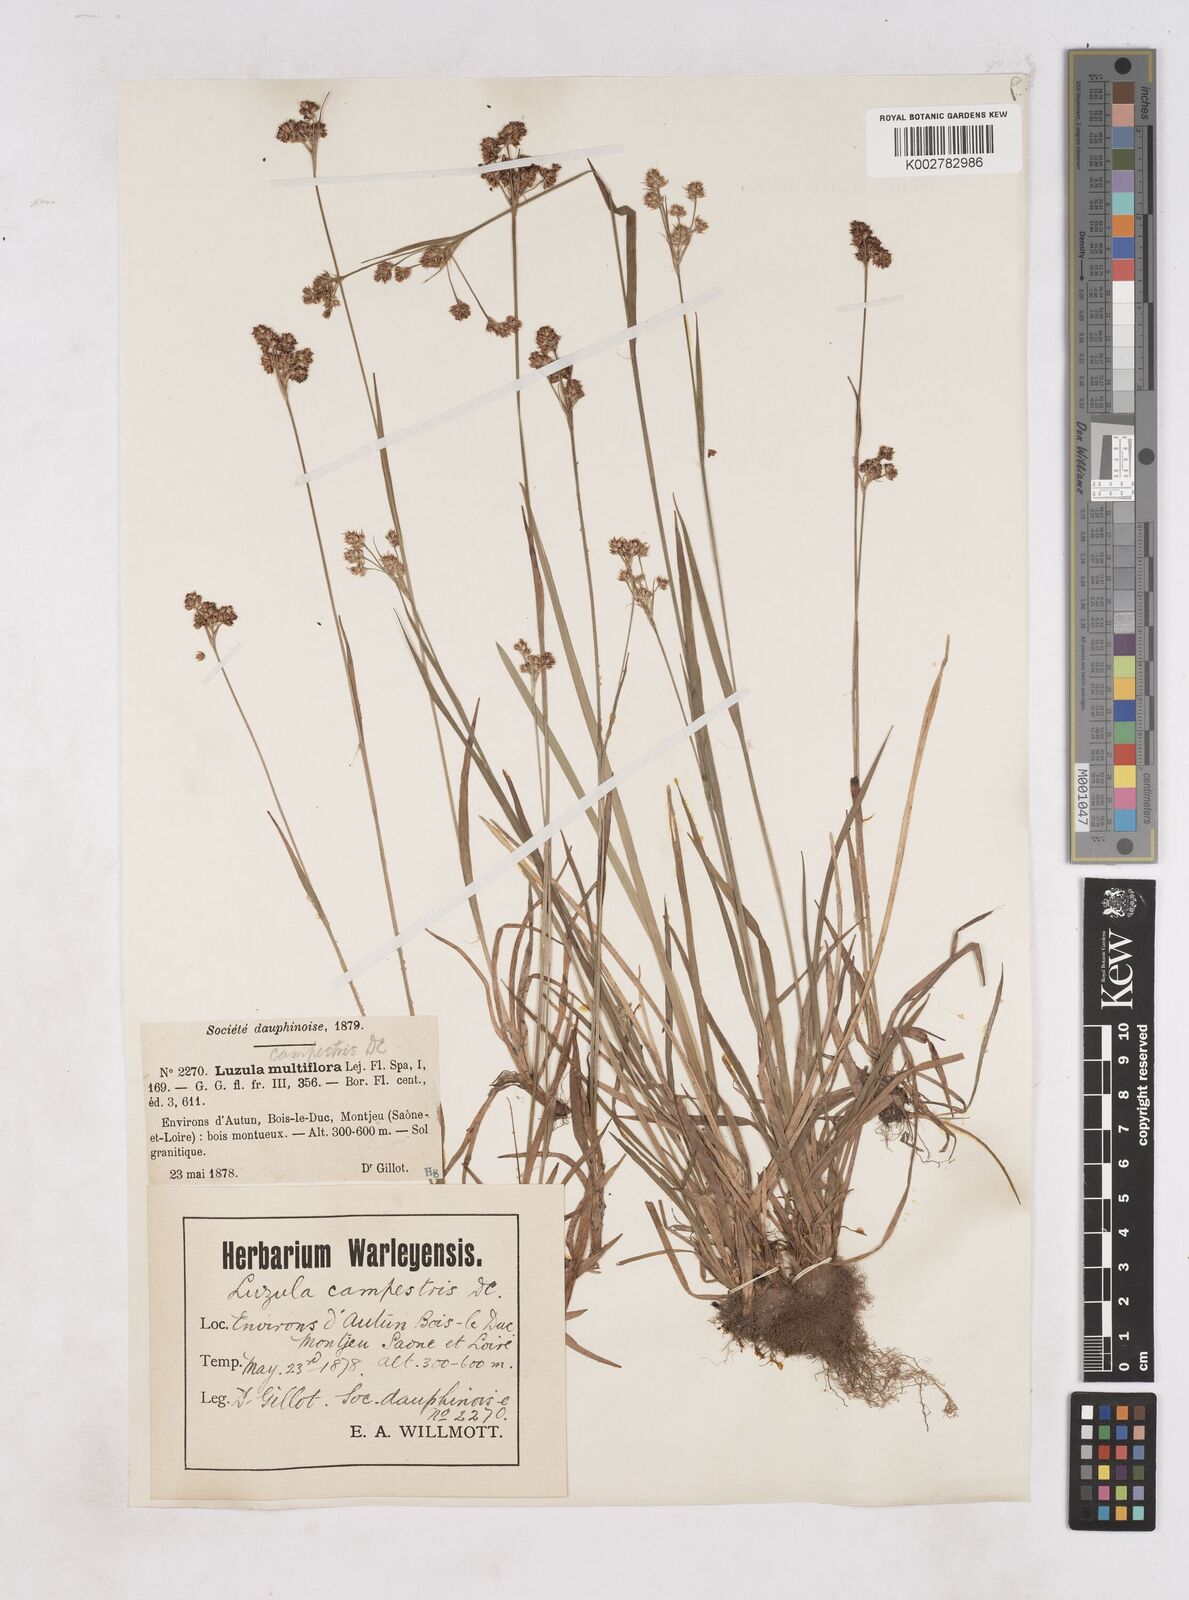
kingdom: Plantae
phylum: Tracheophyta
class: Liliopsida
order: Poales
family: Juncaceae
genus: Luzula
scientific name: Luzula campestris
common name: Field wood-rush
